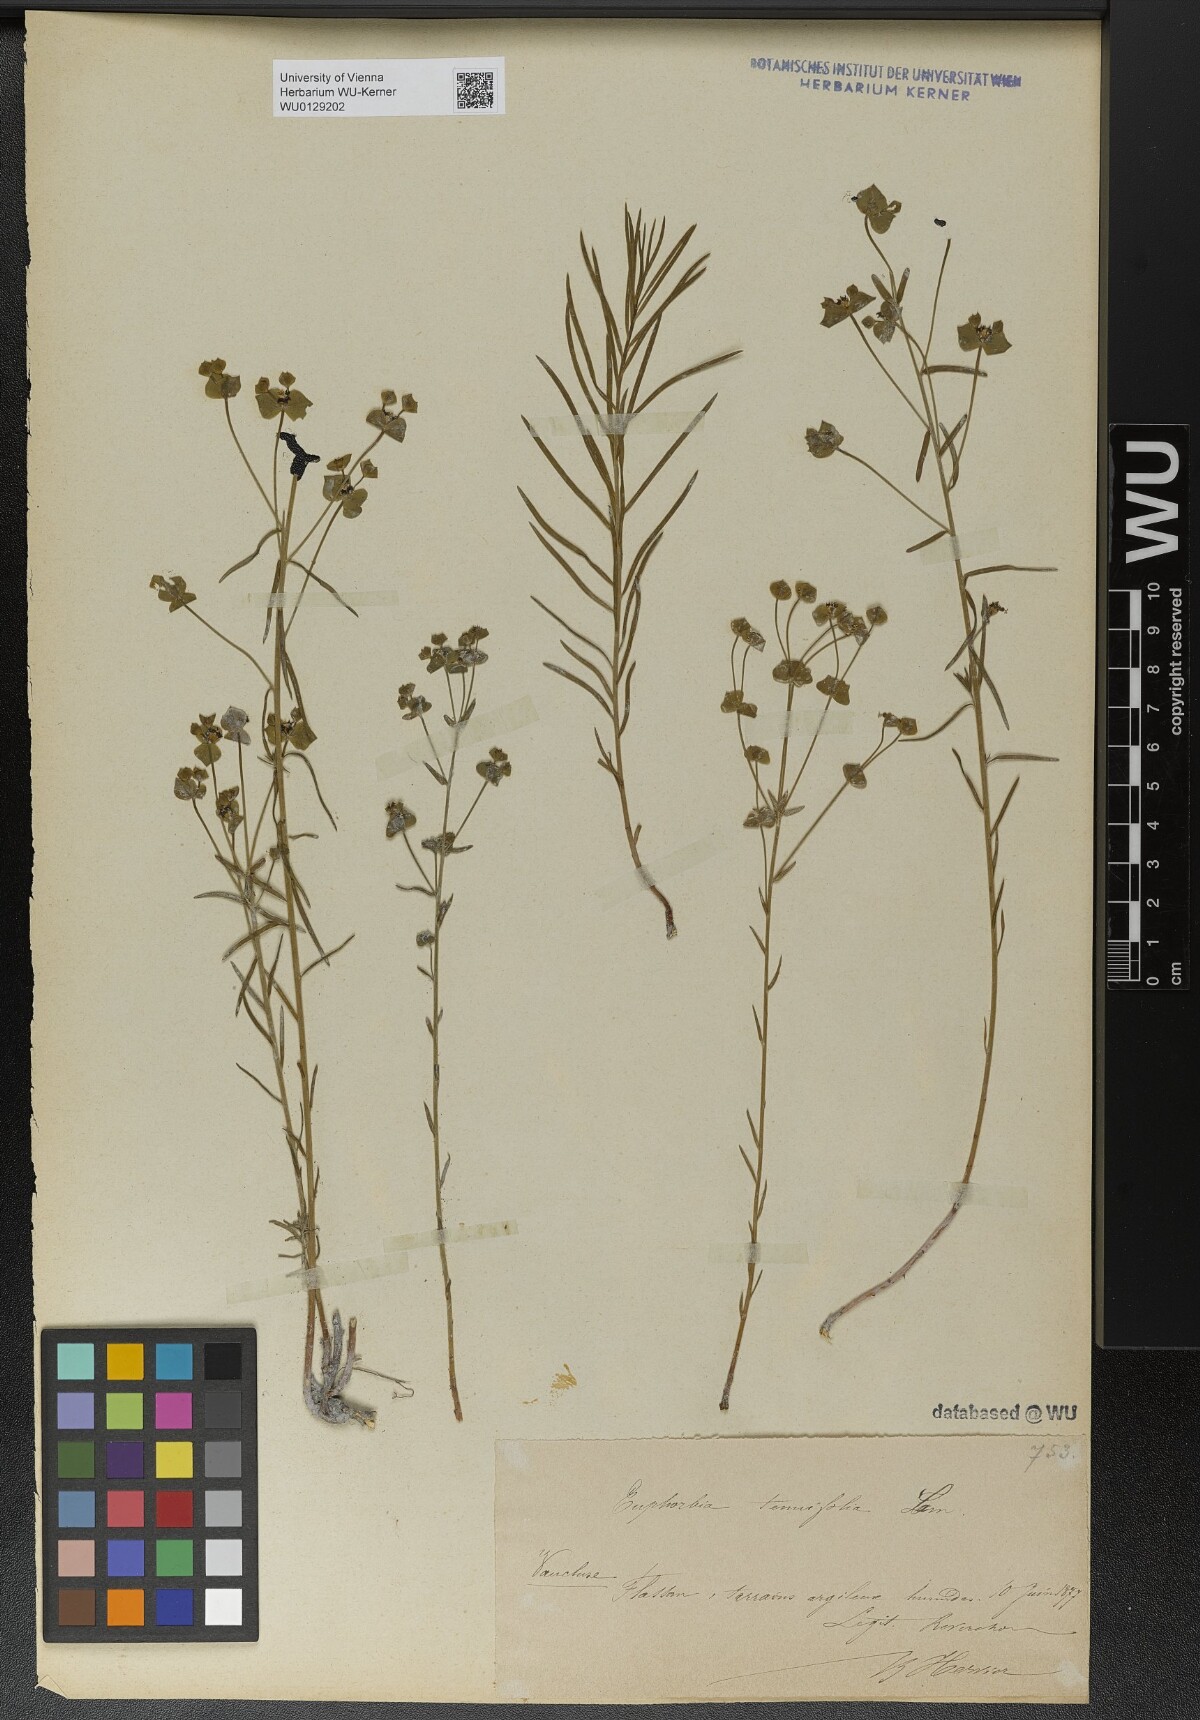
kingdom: Plantae
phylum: Tracheophyta
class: Magnoliopsida
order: Malpighiales
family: Euphorbiaceae
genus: Euphorbia
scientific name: Euphorbia graminifolia
